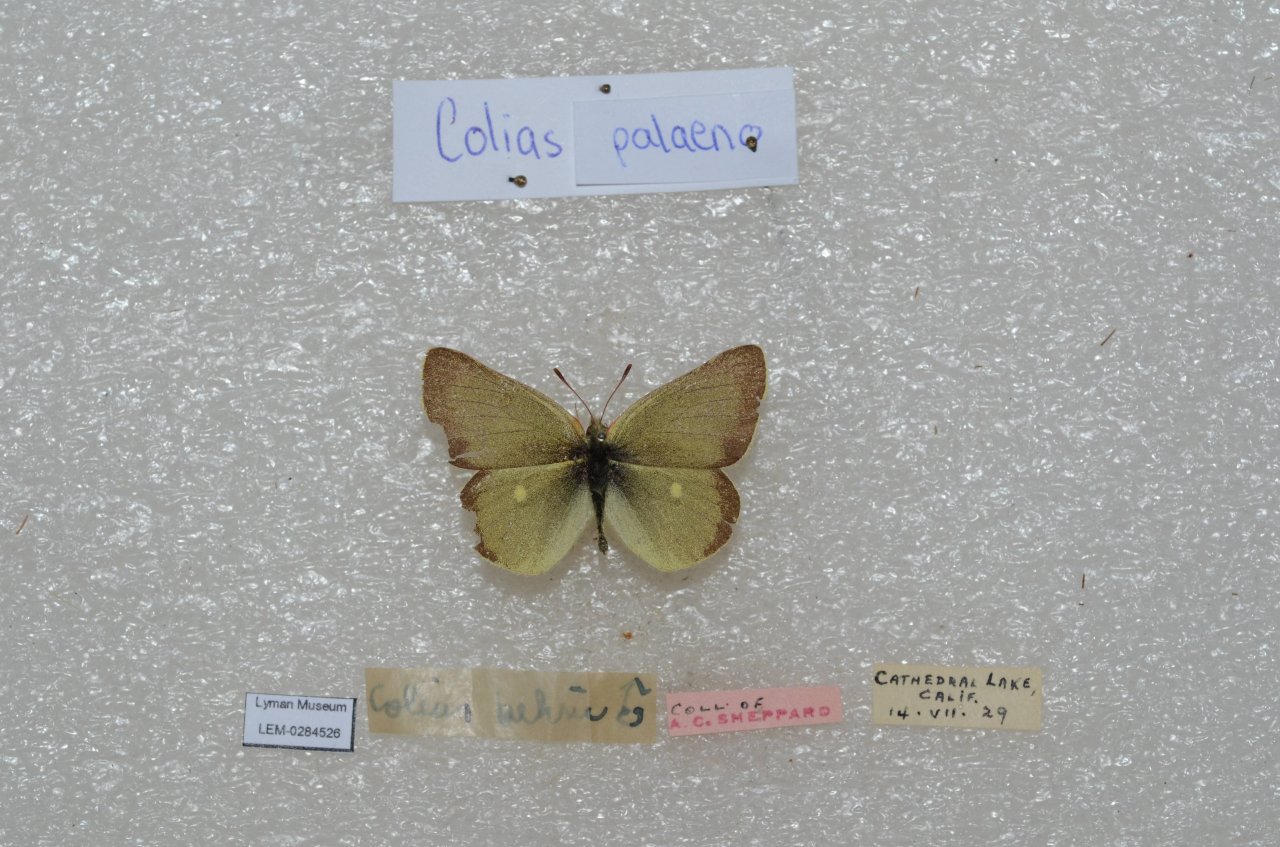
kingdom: Animalia
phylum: Arthropoda
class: Insecta
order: Lepidoptera
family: Pieridae
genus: Colias
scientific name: Colias behrii
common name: Sierra Sulphur
